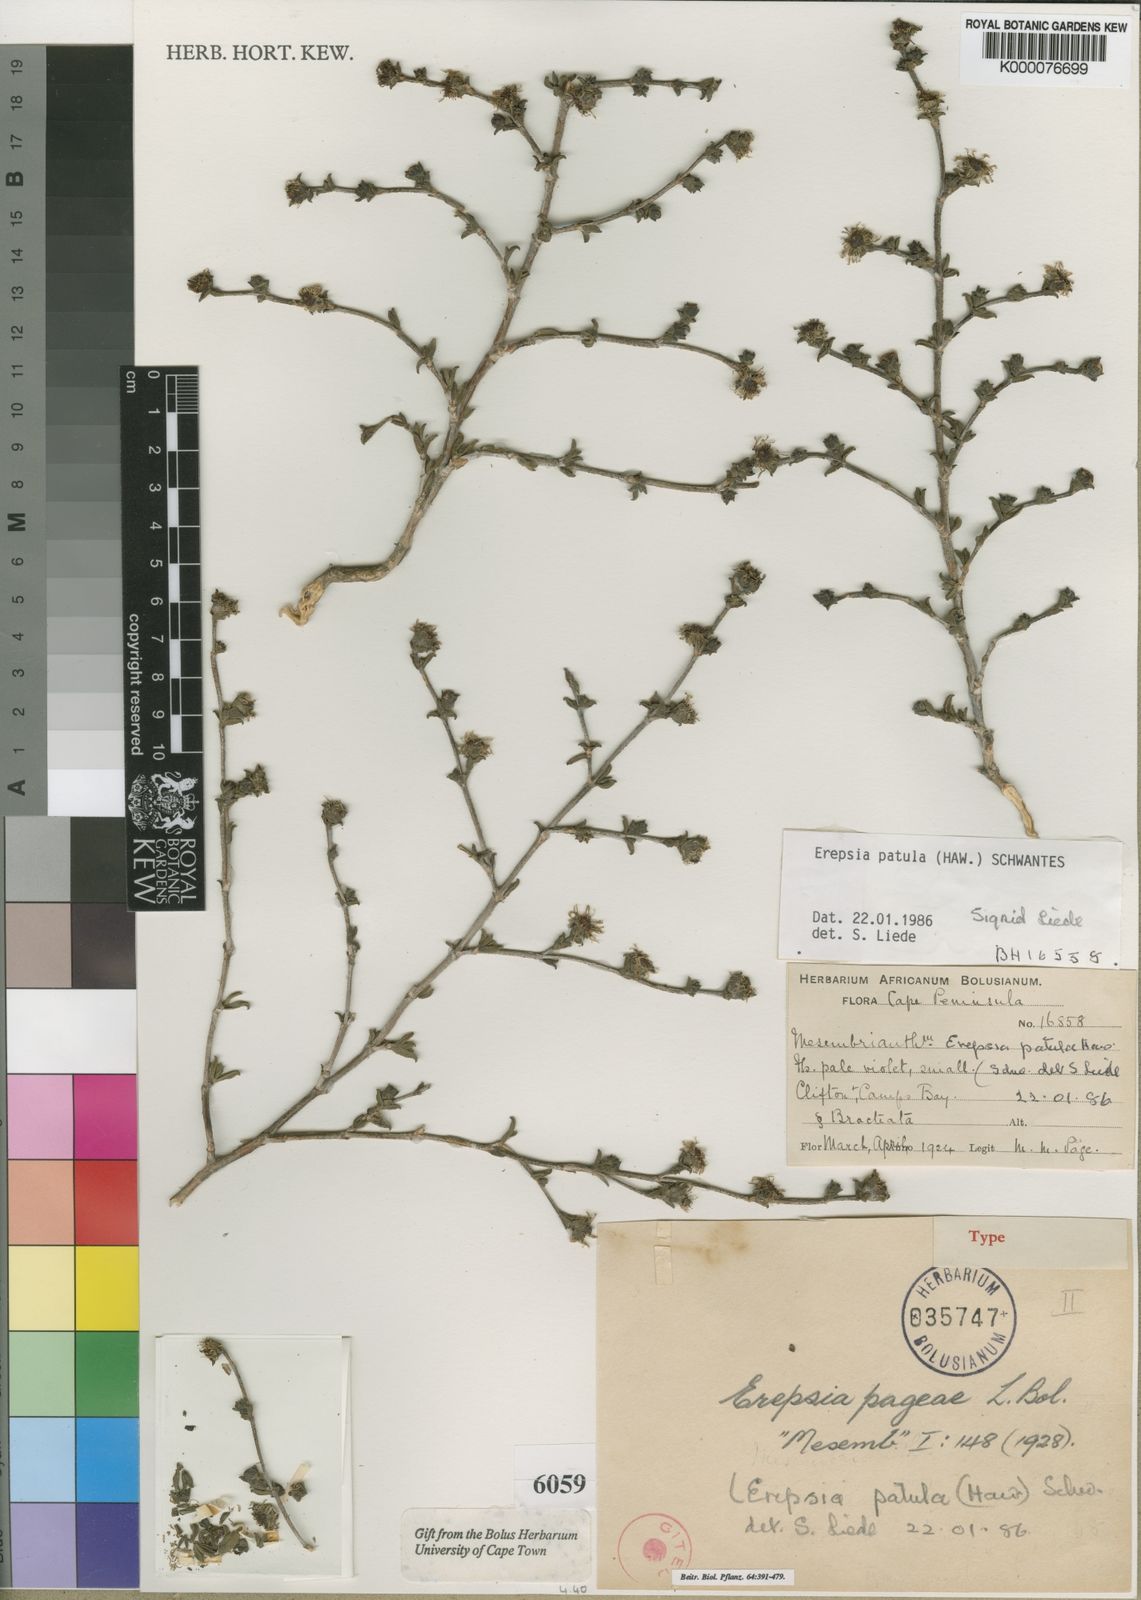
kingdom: Plantae
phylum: Tracheophyta
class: Magnoliopsida
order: Caryophyllales
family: Aizoaceae
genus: Erepsia
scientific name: Erepsia patula
